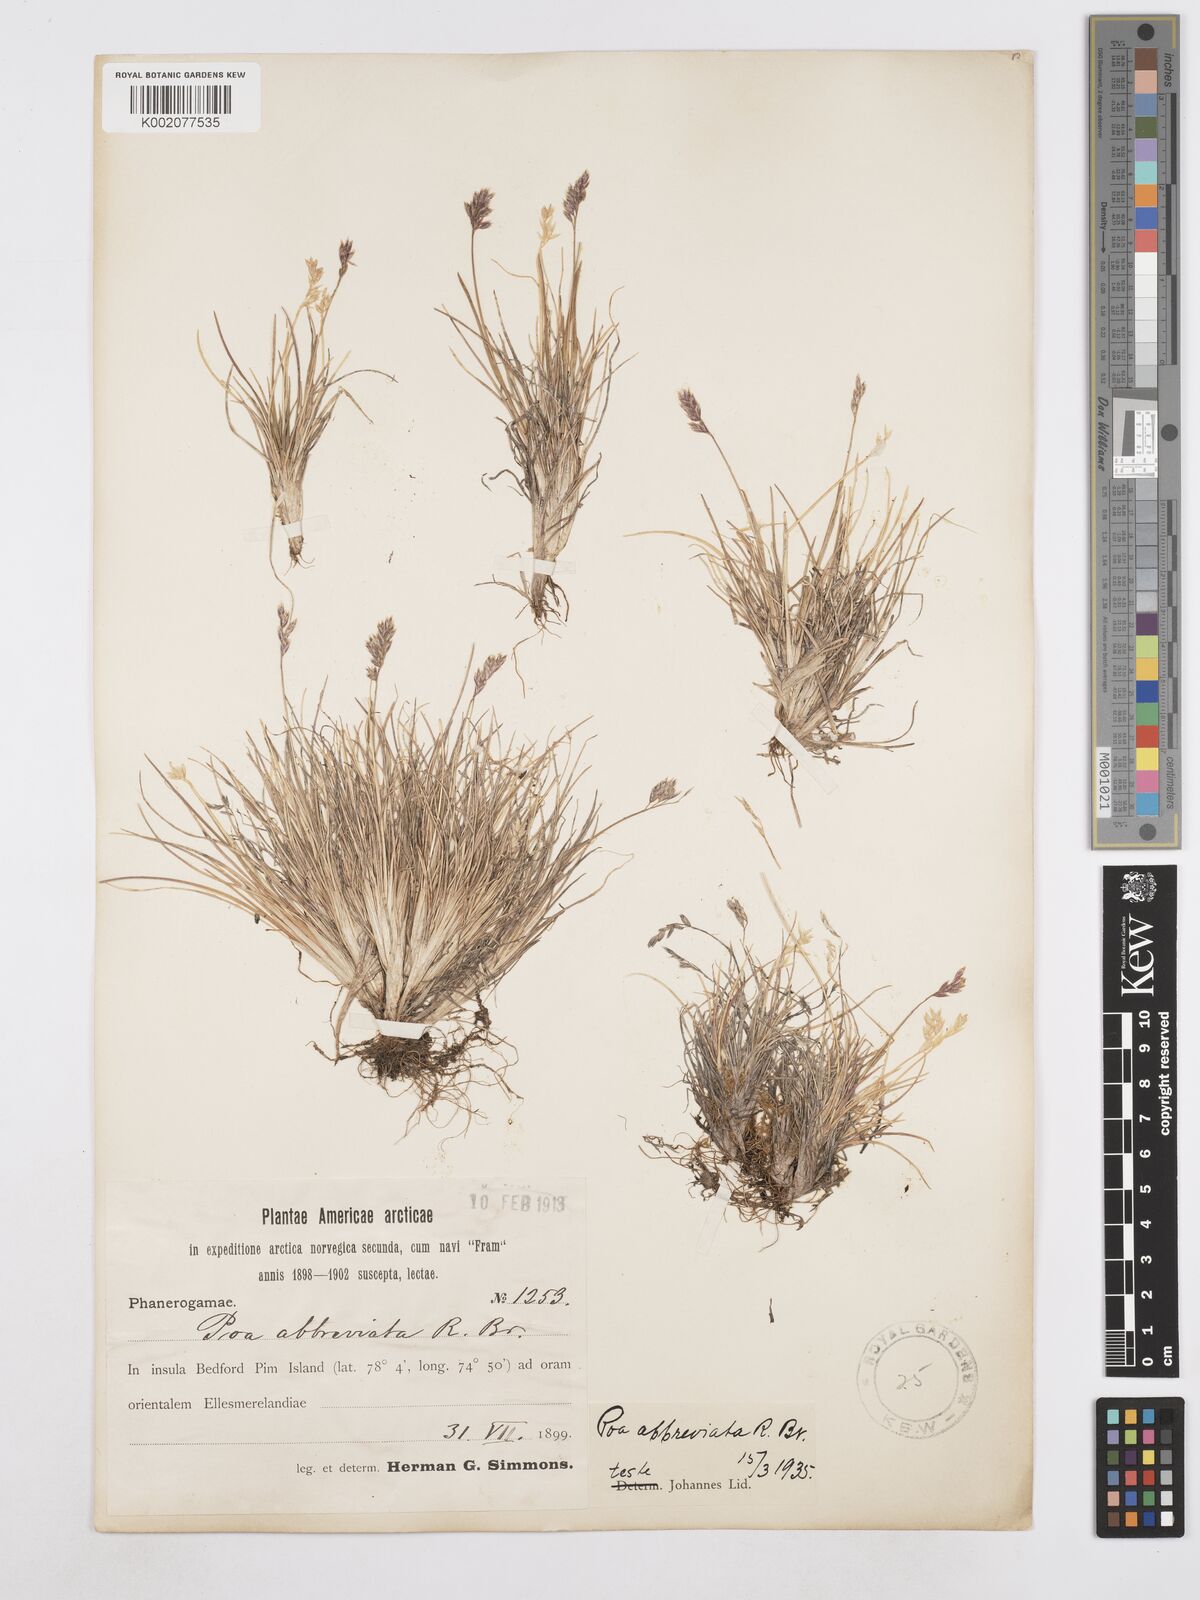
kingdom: Plantae
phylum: Tracheophyta
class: Liliopsida
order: Poales
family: Poaceae
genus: Poa
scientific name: Poa abbreviata
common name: Abbreviated bluegrass
